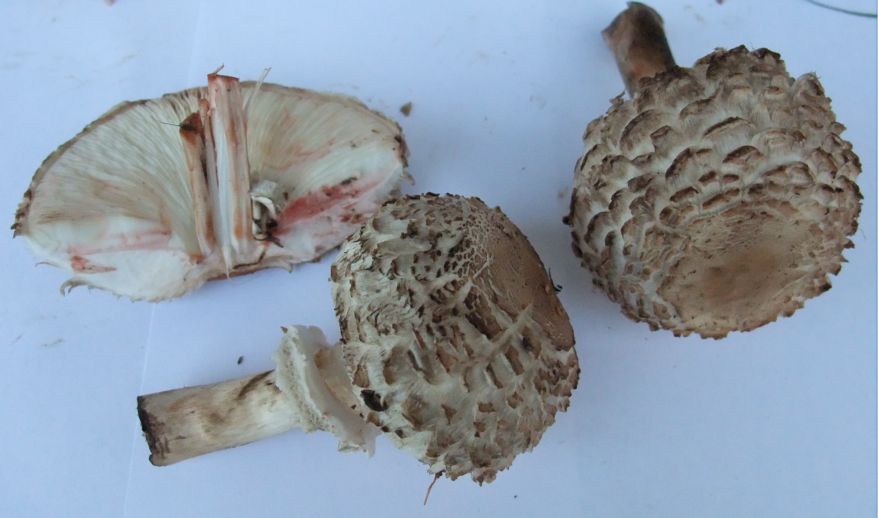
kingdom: Fungi
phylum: Basidiomycota
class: Agaricomycetes
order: Agaricales
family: Agaricaceae
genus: Chlorophyllum
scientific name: Chlorophyllum olivieri
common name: almindelig rabarberhat
